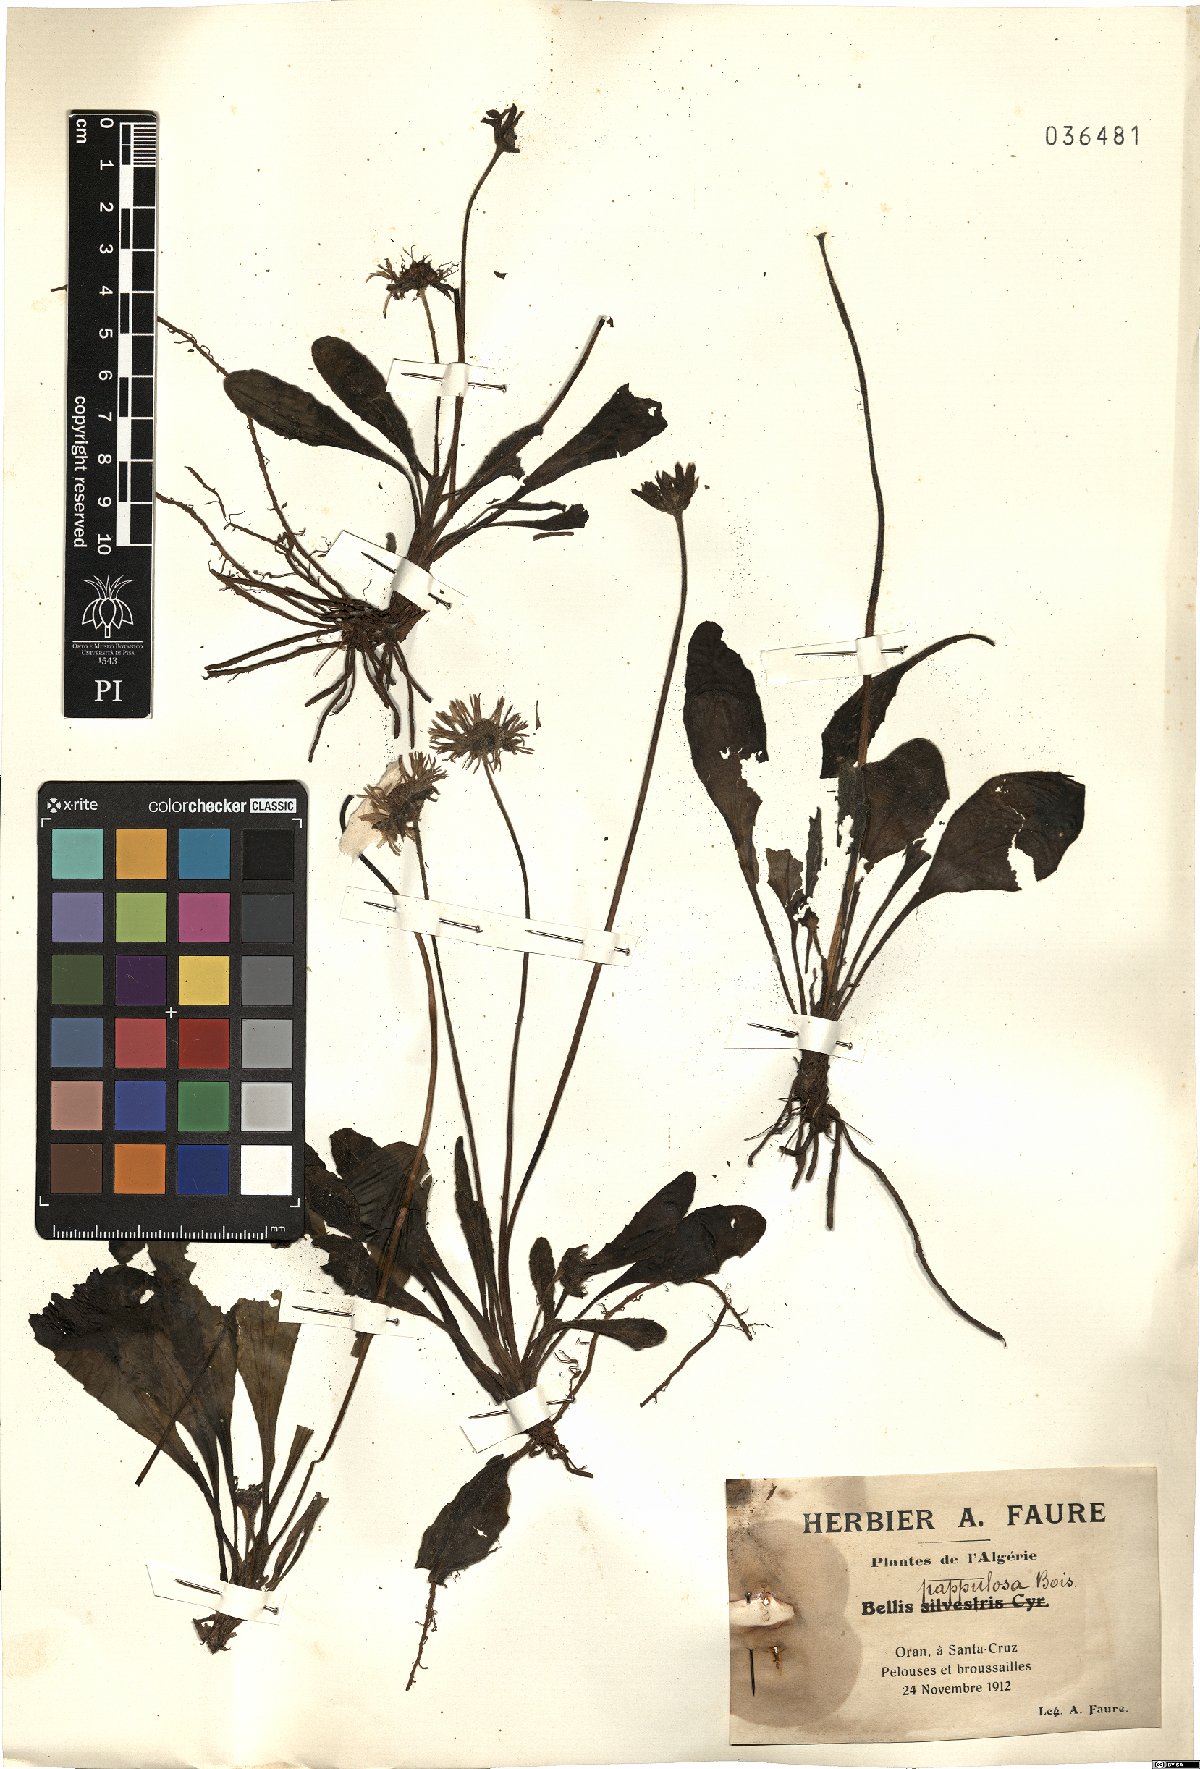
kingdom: Plantae
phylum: Tracheophyta
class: Magnoliopsida
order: Asterales
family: Asteraceae
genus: Bellis
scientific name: Bellis sylvestris
